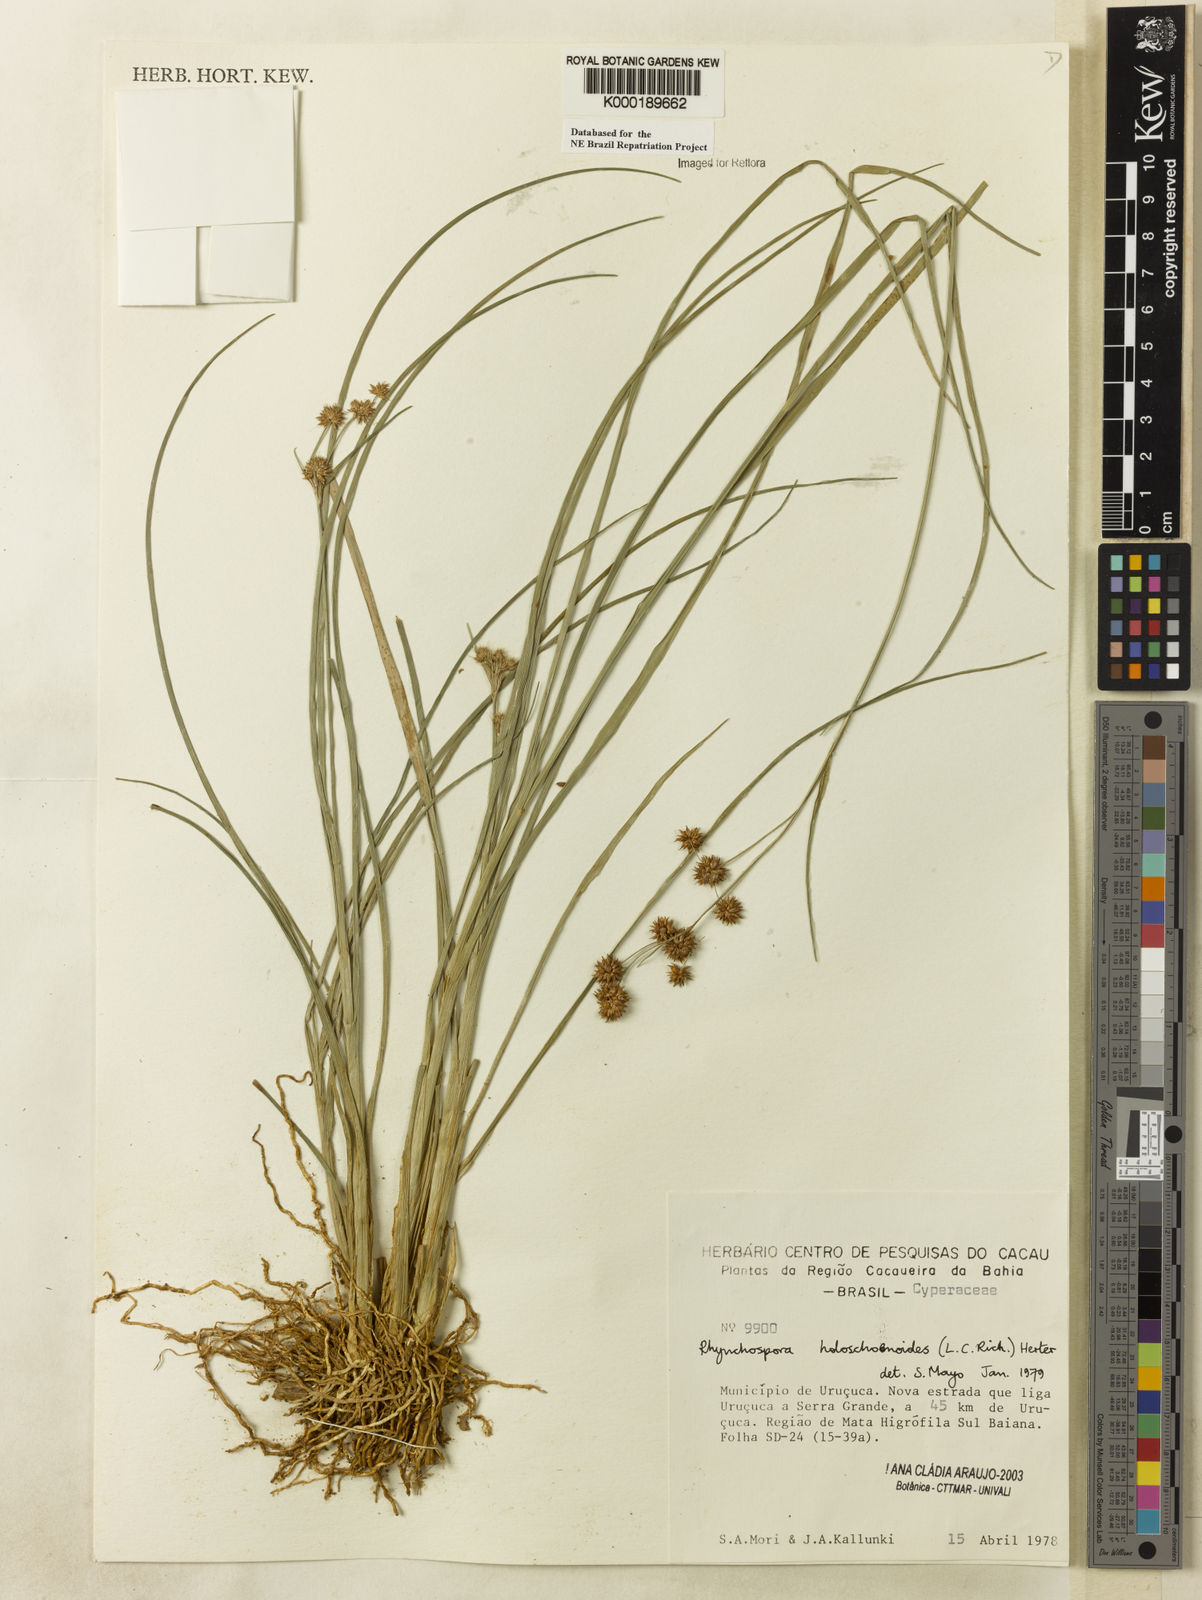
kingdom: Plantae
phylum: Tracheophyta
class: Liliopsida
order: Poales
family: Cyperaceae
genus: Rhynchospora
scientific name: Rhynchospora holoschoenoides
